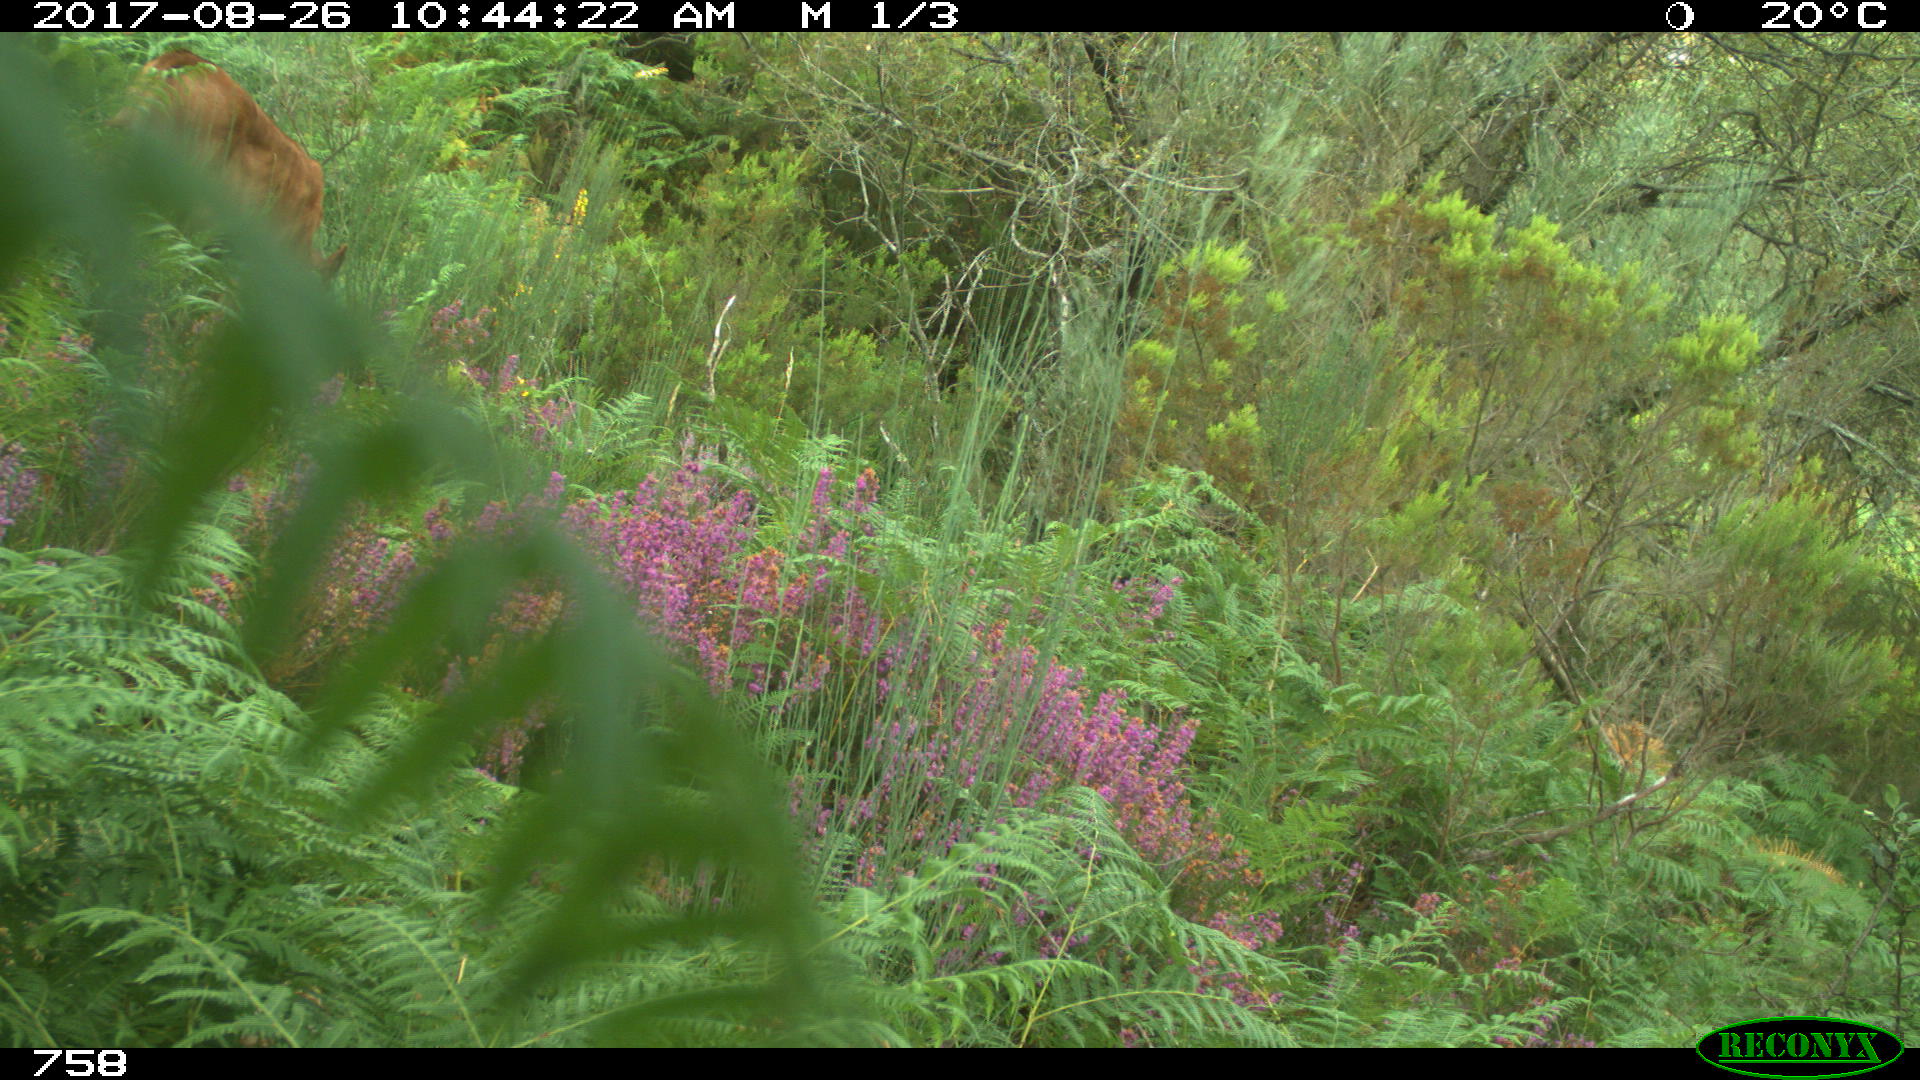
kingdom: Animalia
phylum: Chordata
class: Mammalia
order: Artiodactyla
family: Bovidae
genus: Bos
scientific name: Bos taurus
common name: Domesticated cattle
